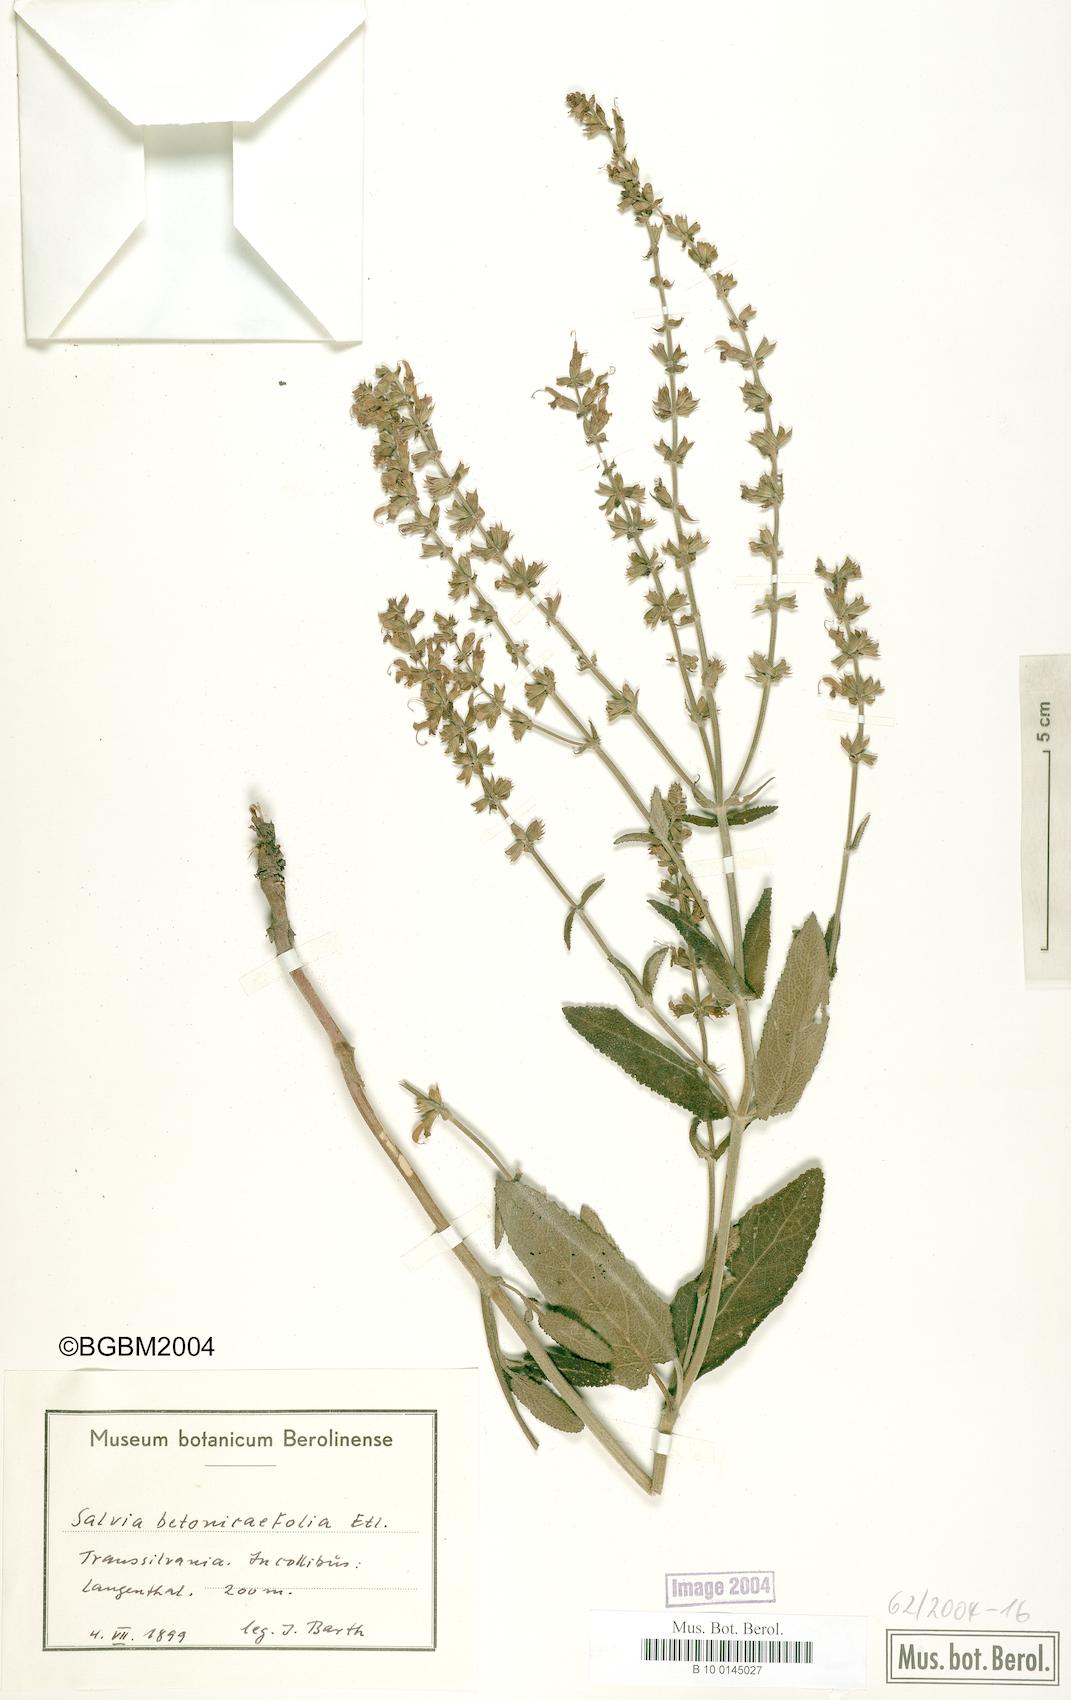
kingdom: Plantae
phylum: Tracheophyta
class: Magnoliopsida
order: Lamiales
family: Lamiaceae
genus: Salvia
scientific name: Salvia
